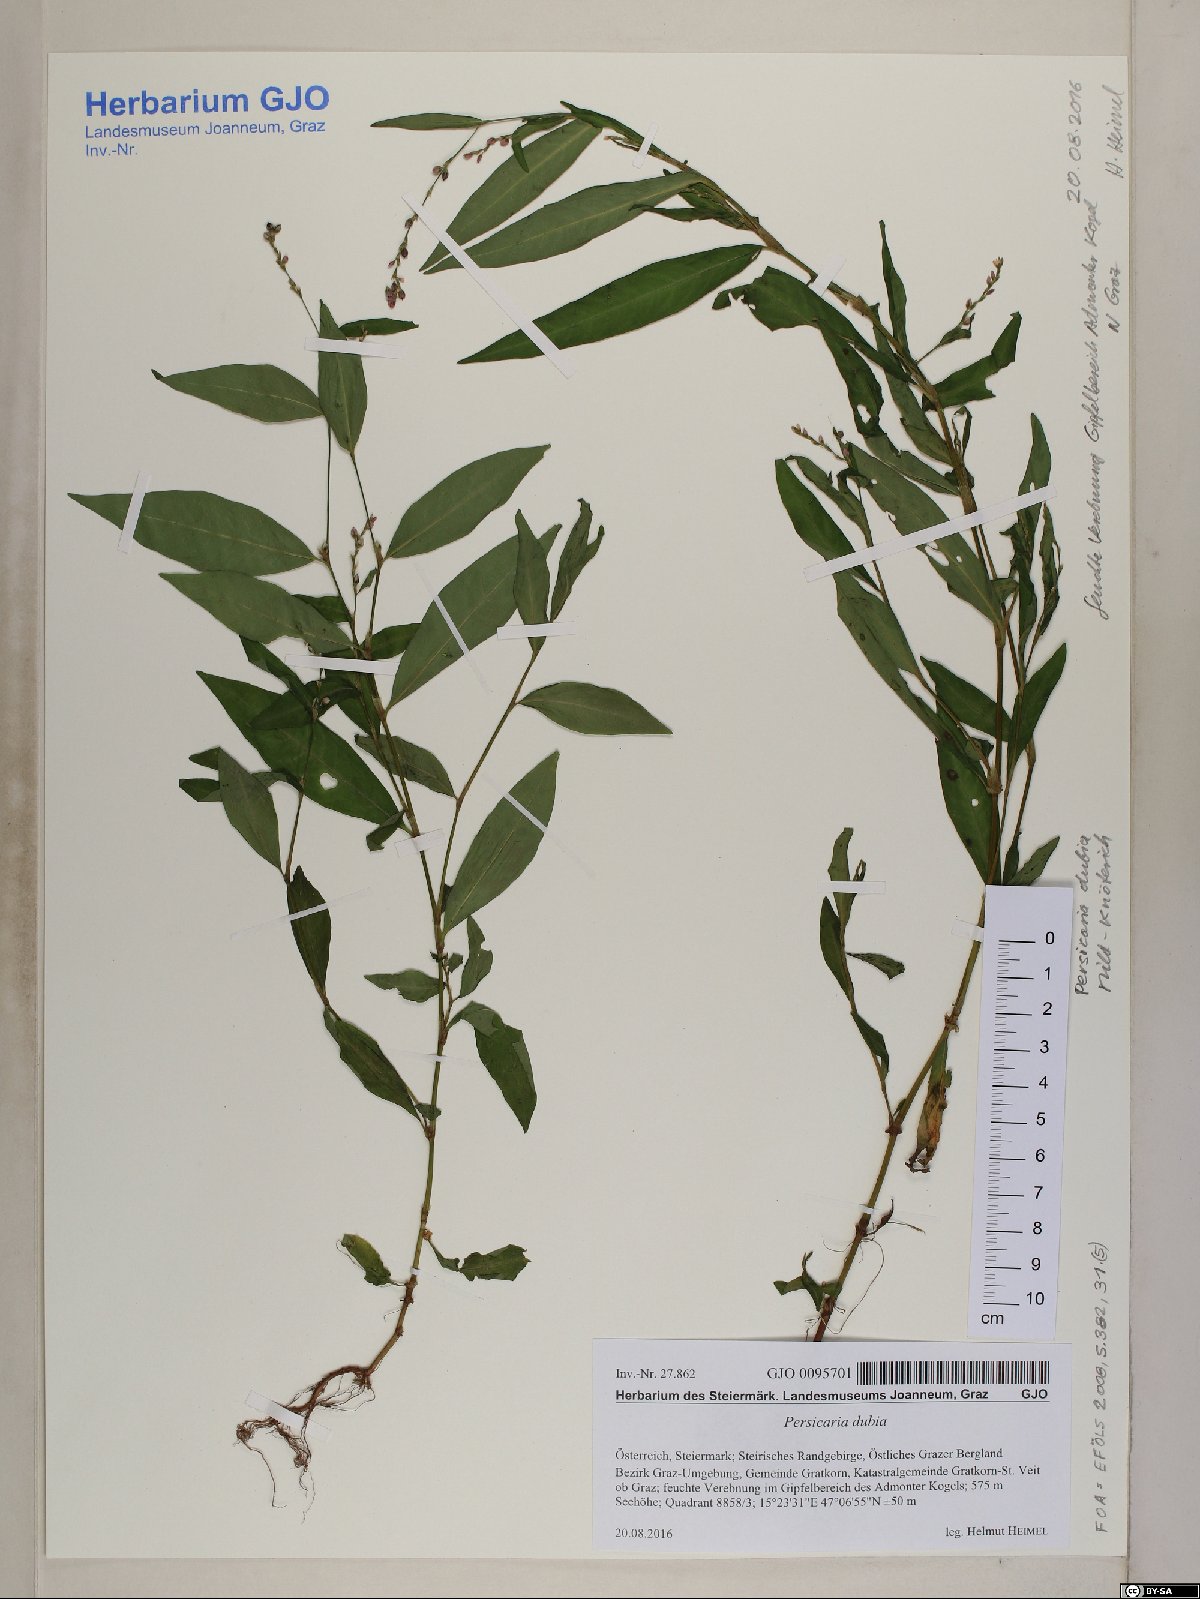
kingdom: Plantae
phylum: Tracheophyta
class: Magnoliopsida
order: Caryophyllales
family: Polygonaceae
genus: Persicaria
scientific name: Persicaria mitis
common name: Tasteless water-pepper
